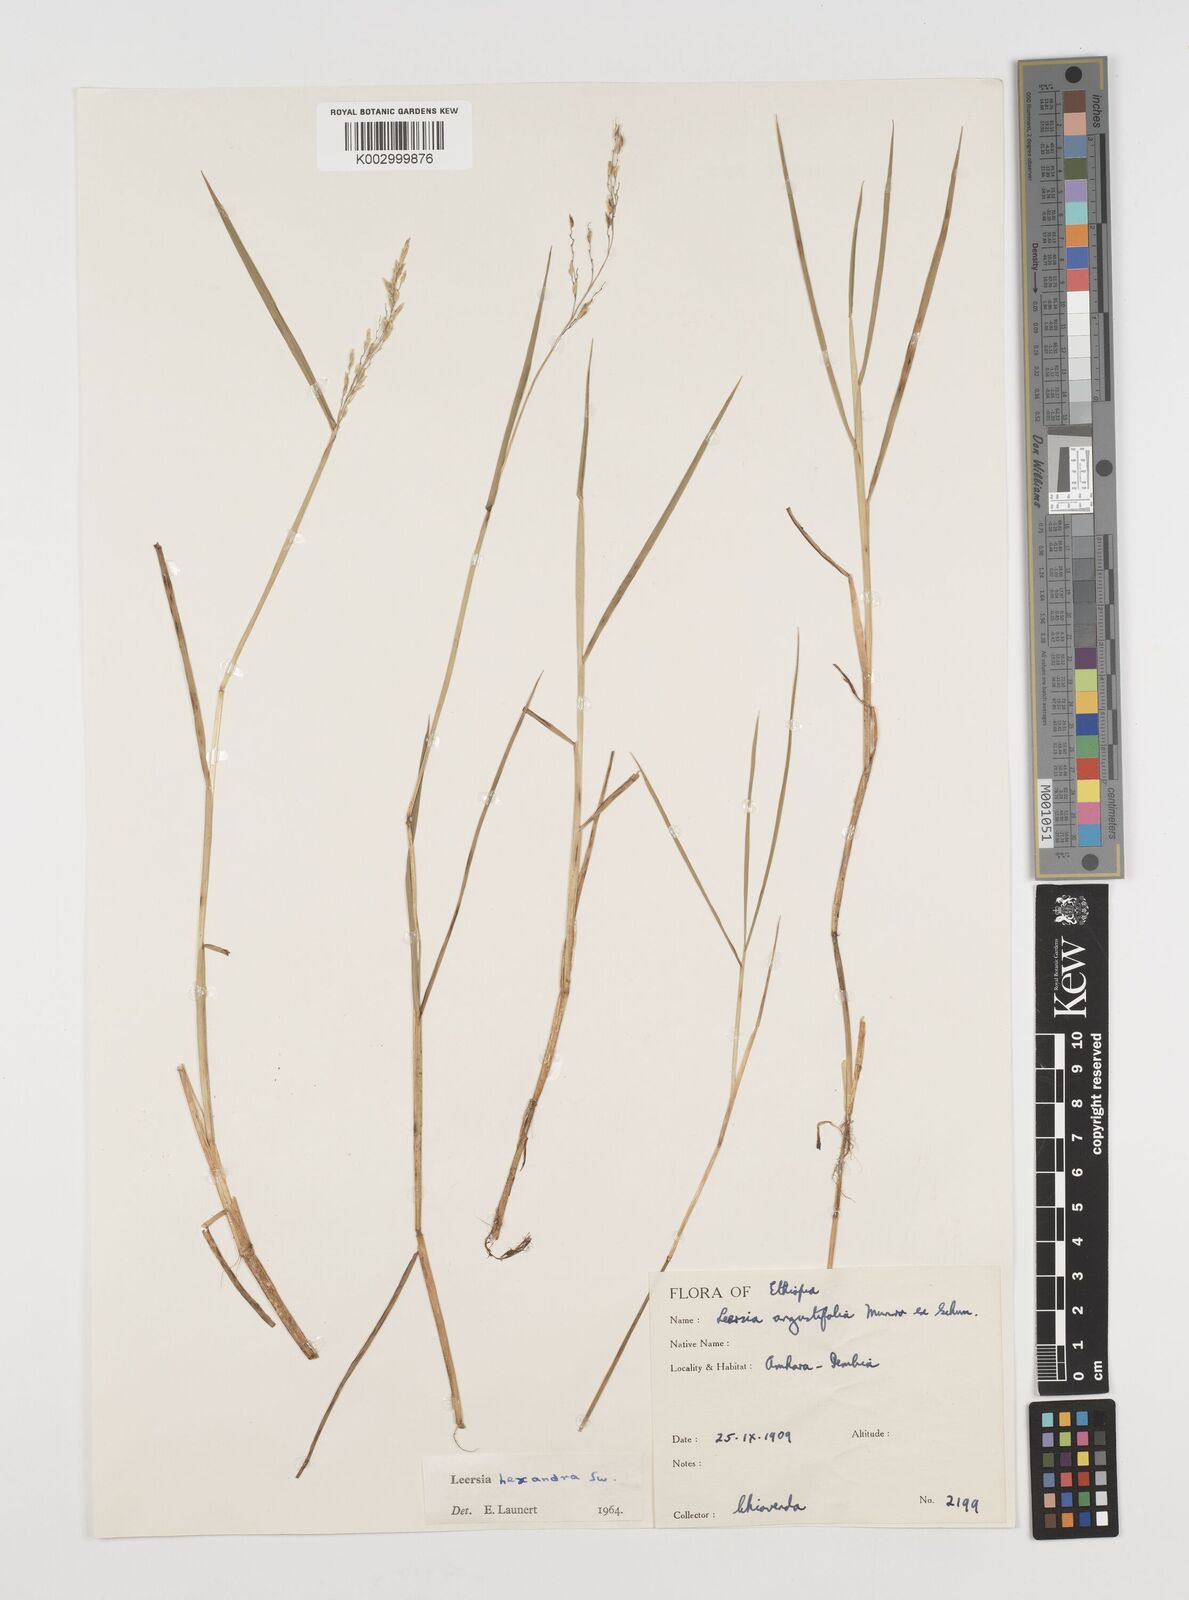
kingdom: Plantae
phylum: Tracheophyta
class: Liliopsida
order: Poales
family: Poaceae
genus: Leersia
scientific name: Leersia hexandra
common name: Southern cut grass
